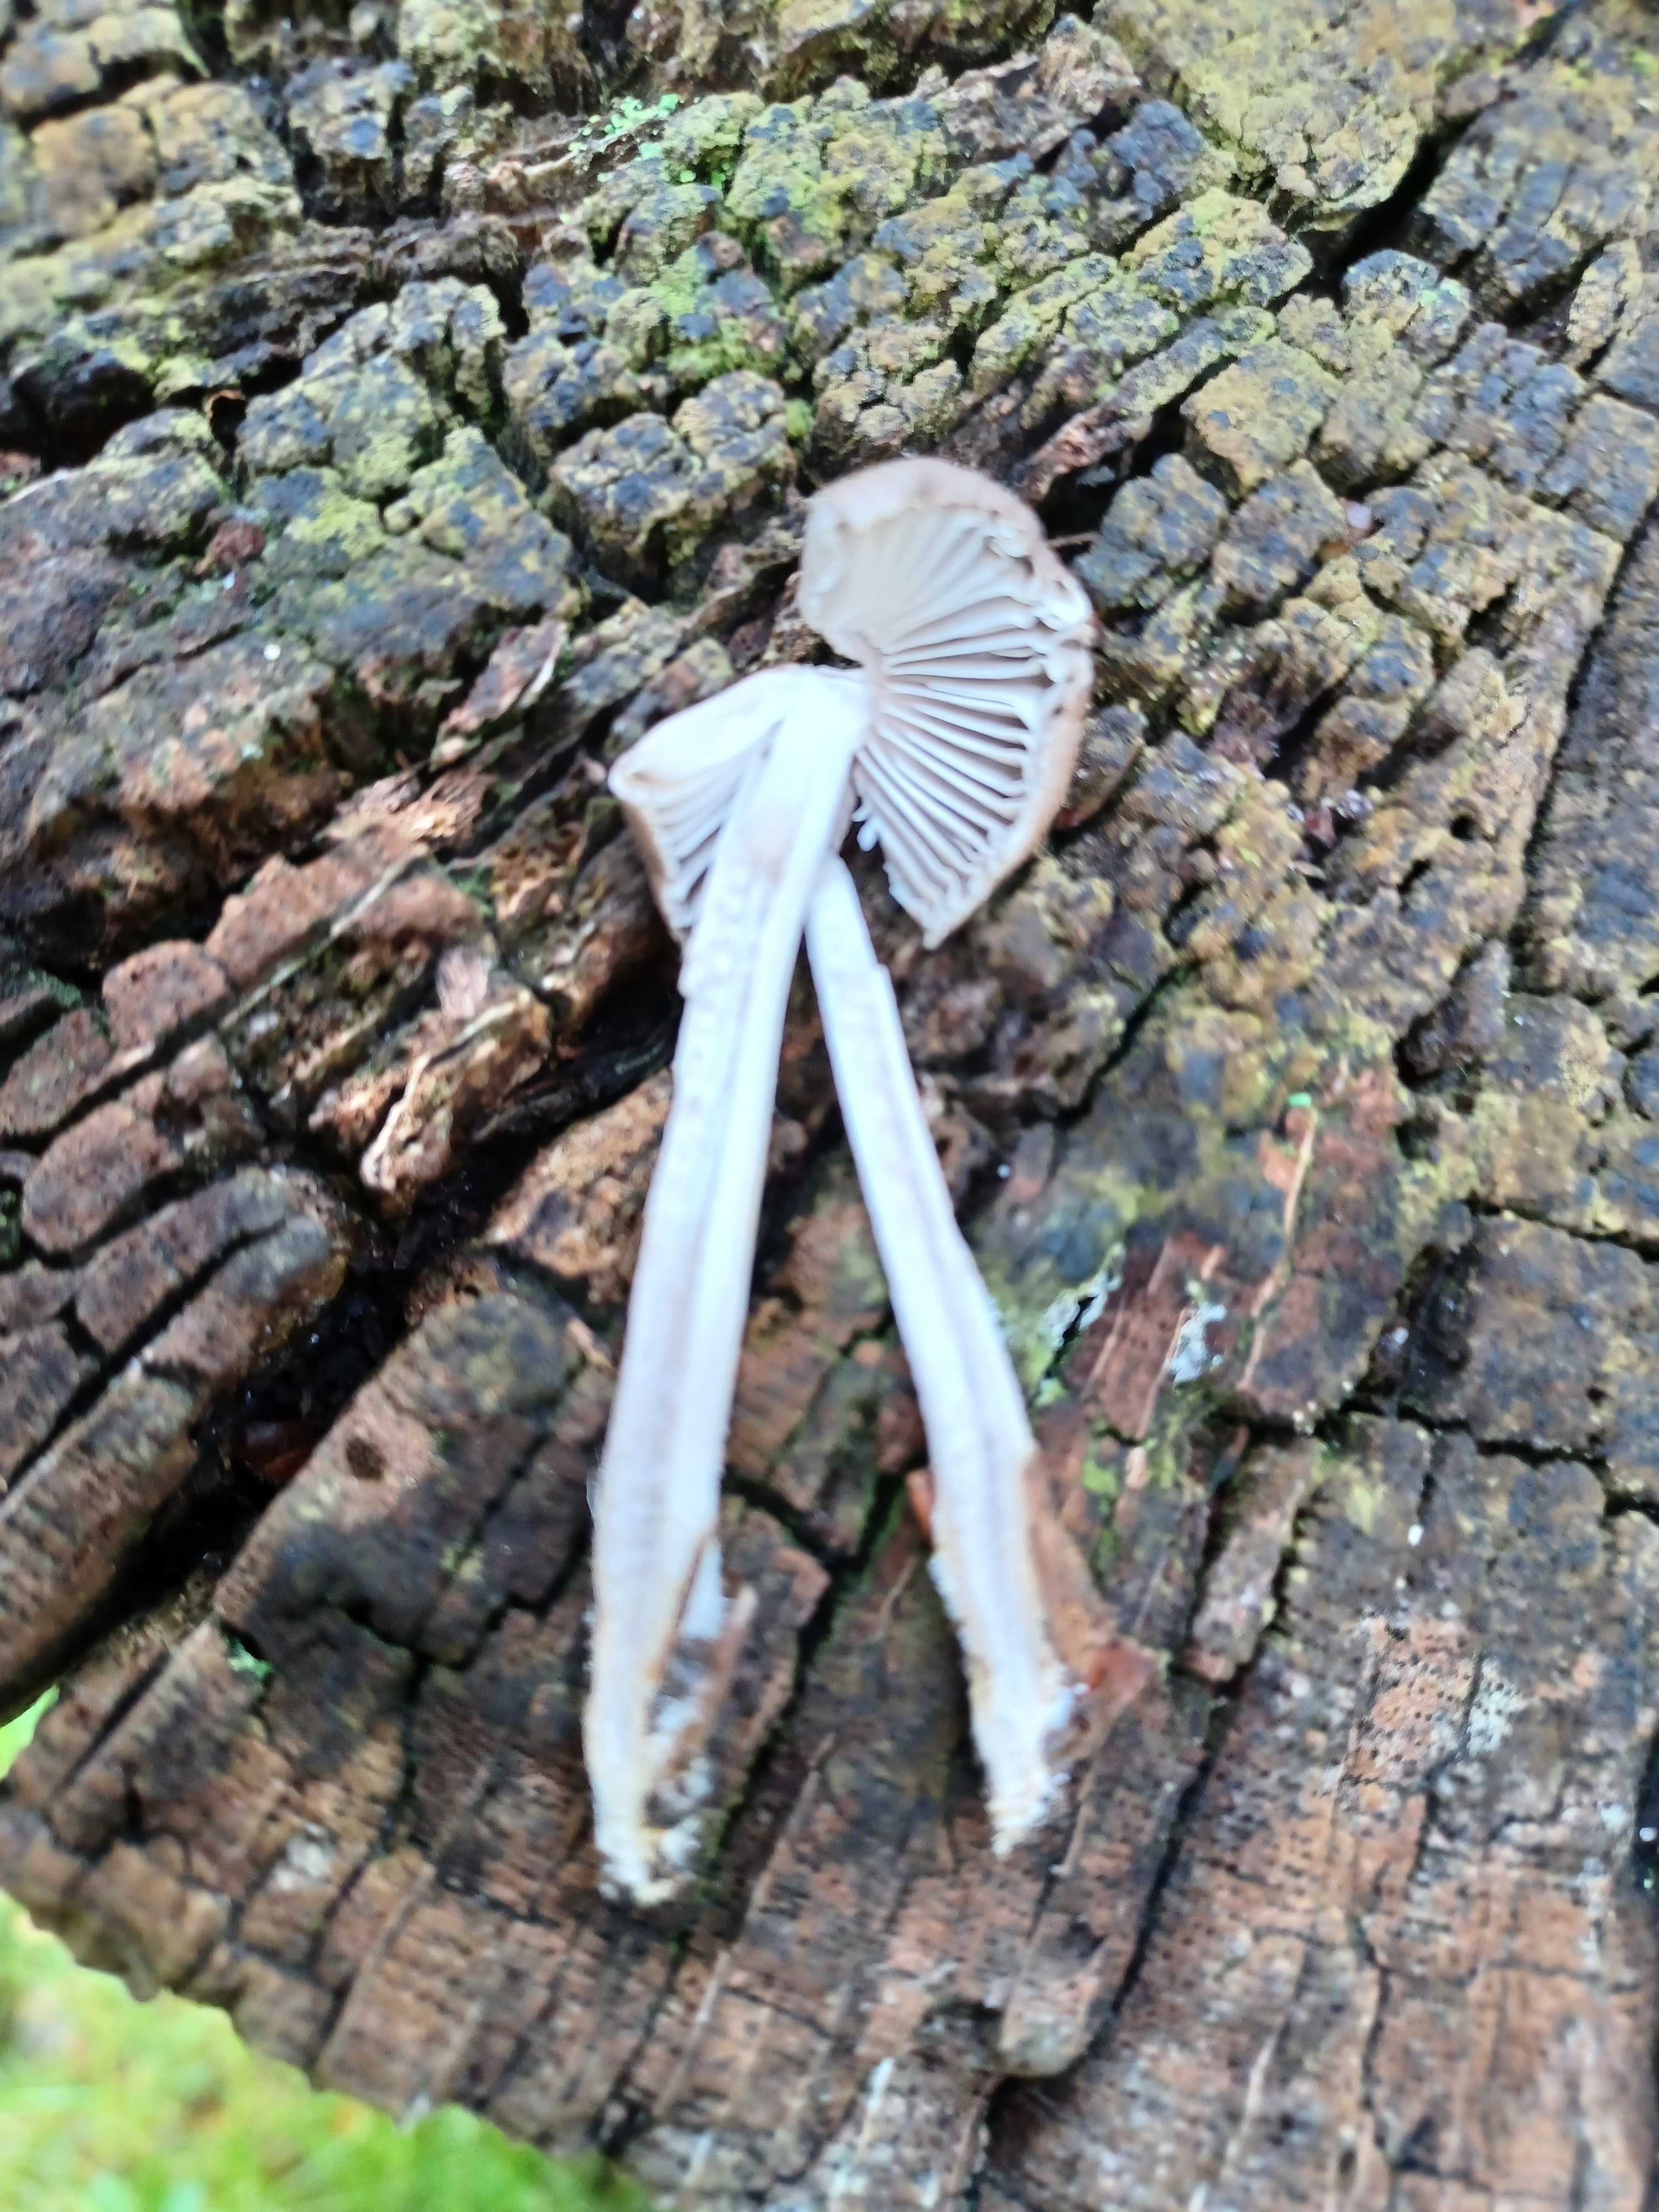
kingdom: Fungi
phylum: Basidiomycota
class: Agaricomycetes
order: Agaricales
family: Mycenaceae
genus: Mycena
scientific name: Mycena
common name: huesvamp
